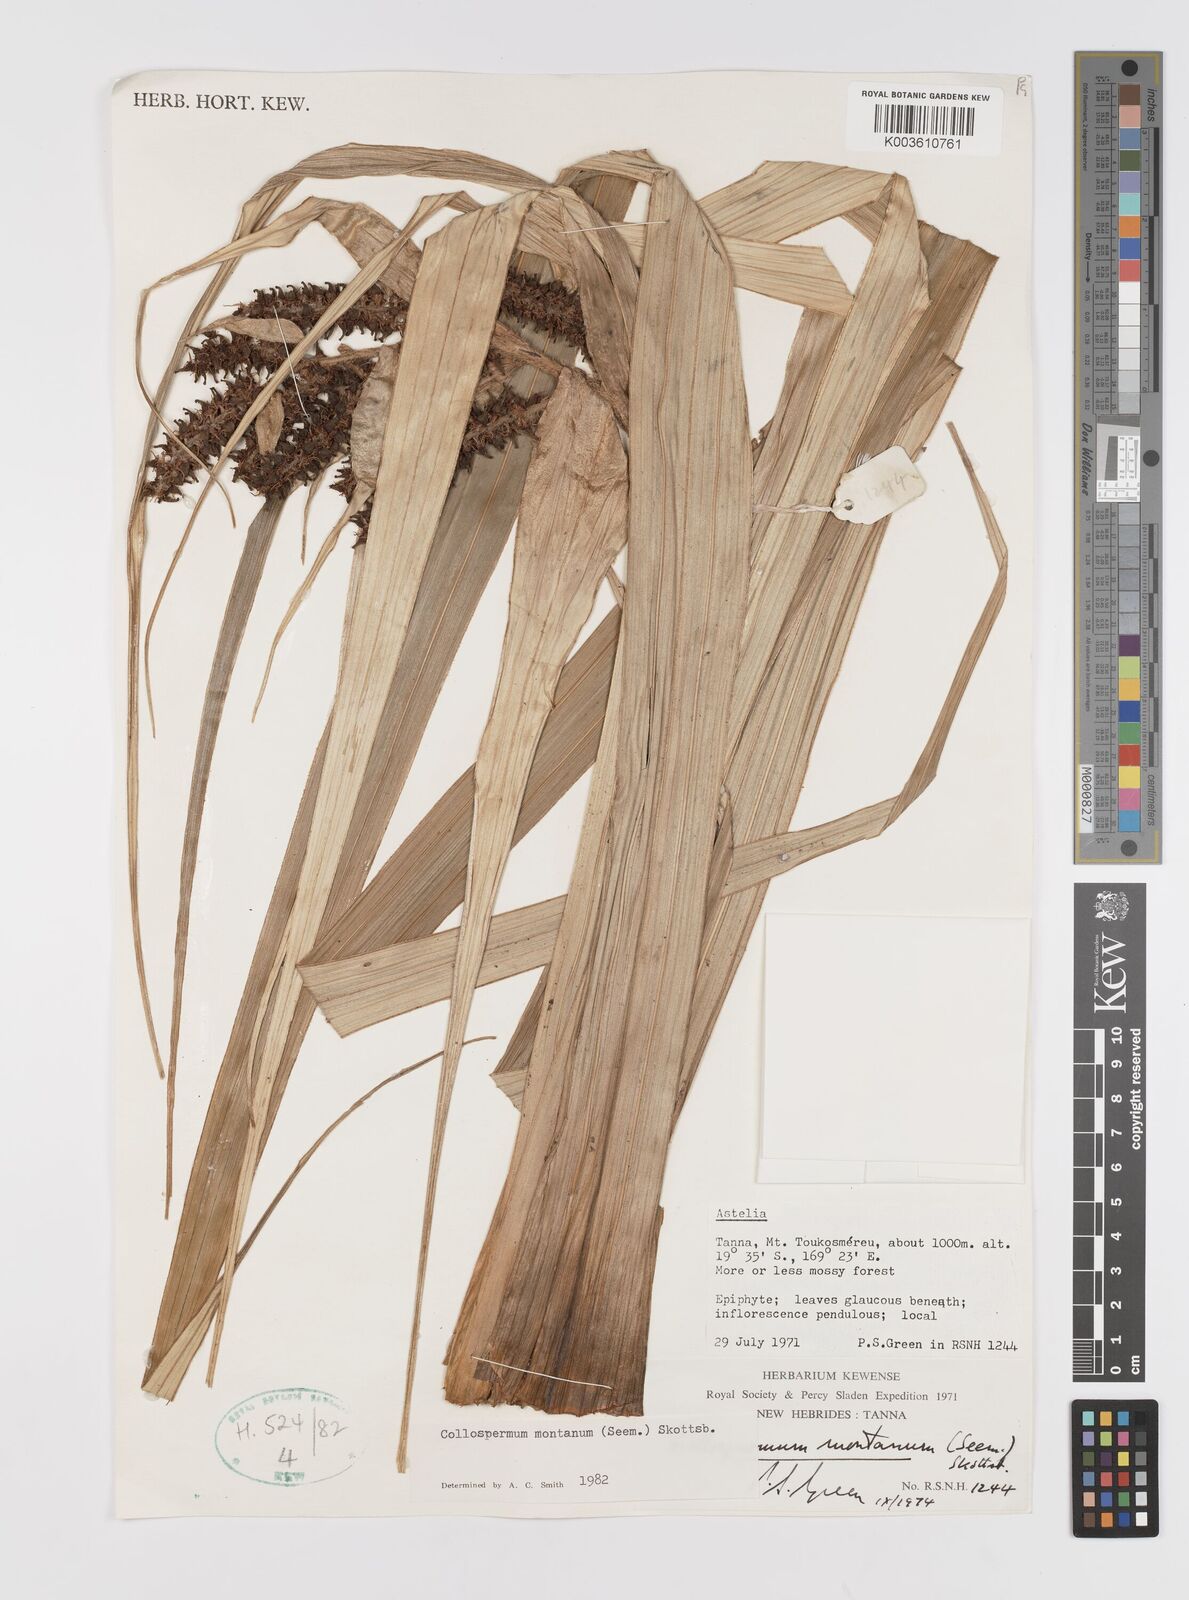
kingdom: Plantae
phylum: Tracheophyta
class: Liliopsida
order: Asparagales
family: Asteliaceae
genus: Astelia
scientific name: Astelia montana
